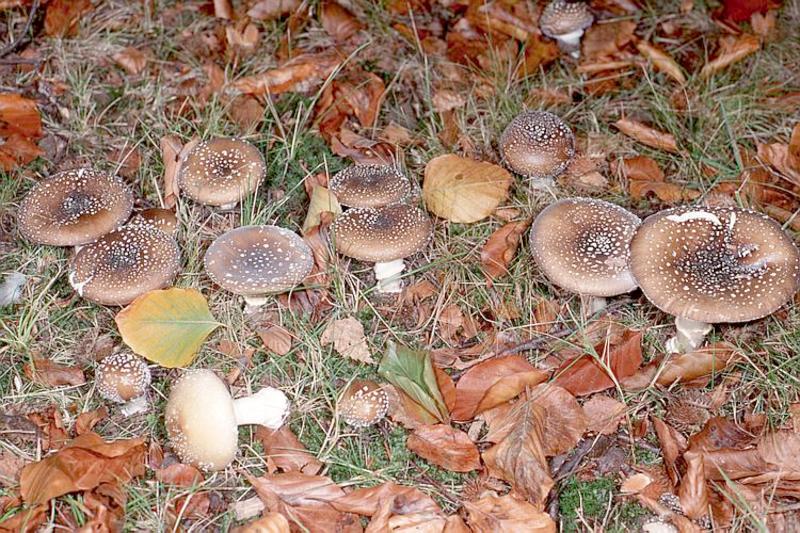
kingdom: Fungi
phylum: Basidiomycota
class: Agaricomycetes
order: Agaricales
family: Amanitaceae
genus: Amanita
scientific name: Amanita pantherina
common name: Panthercap
